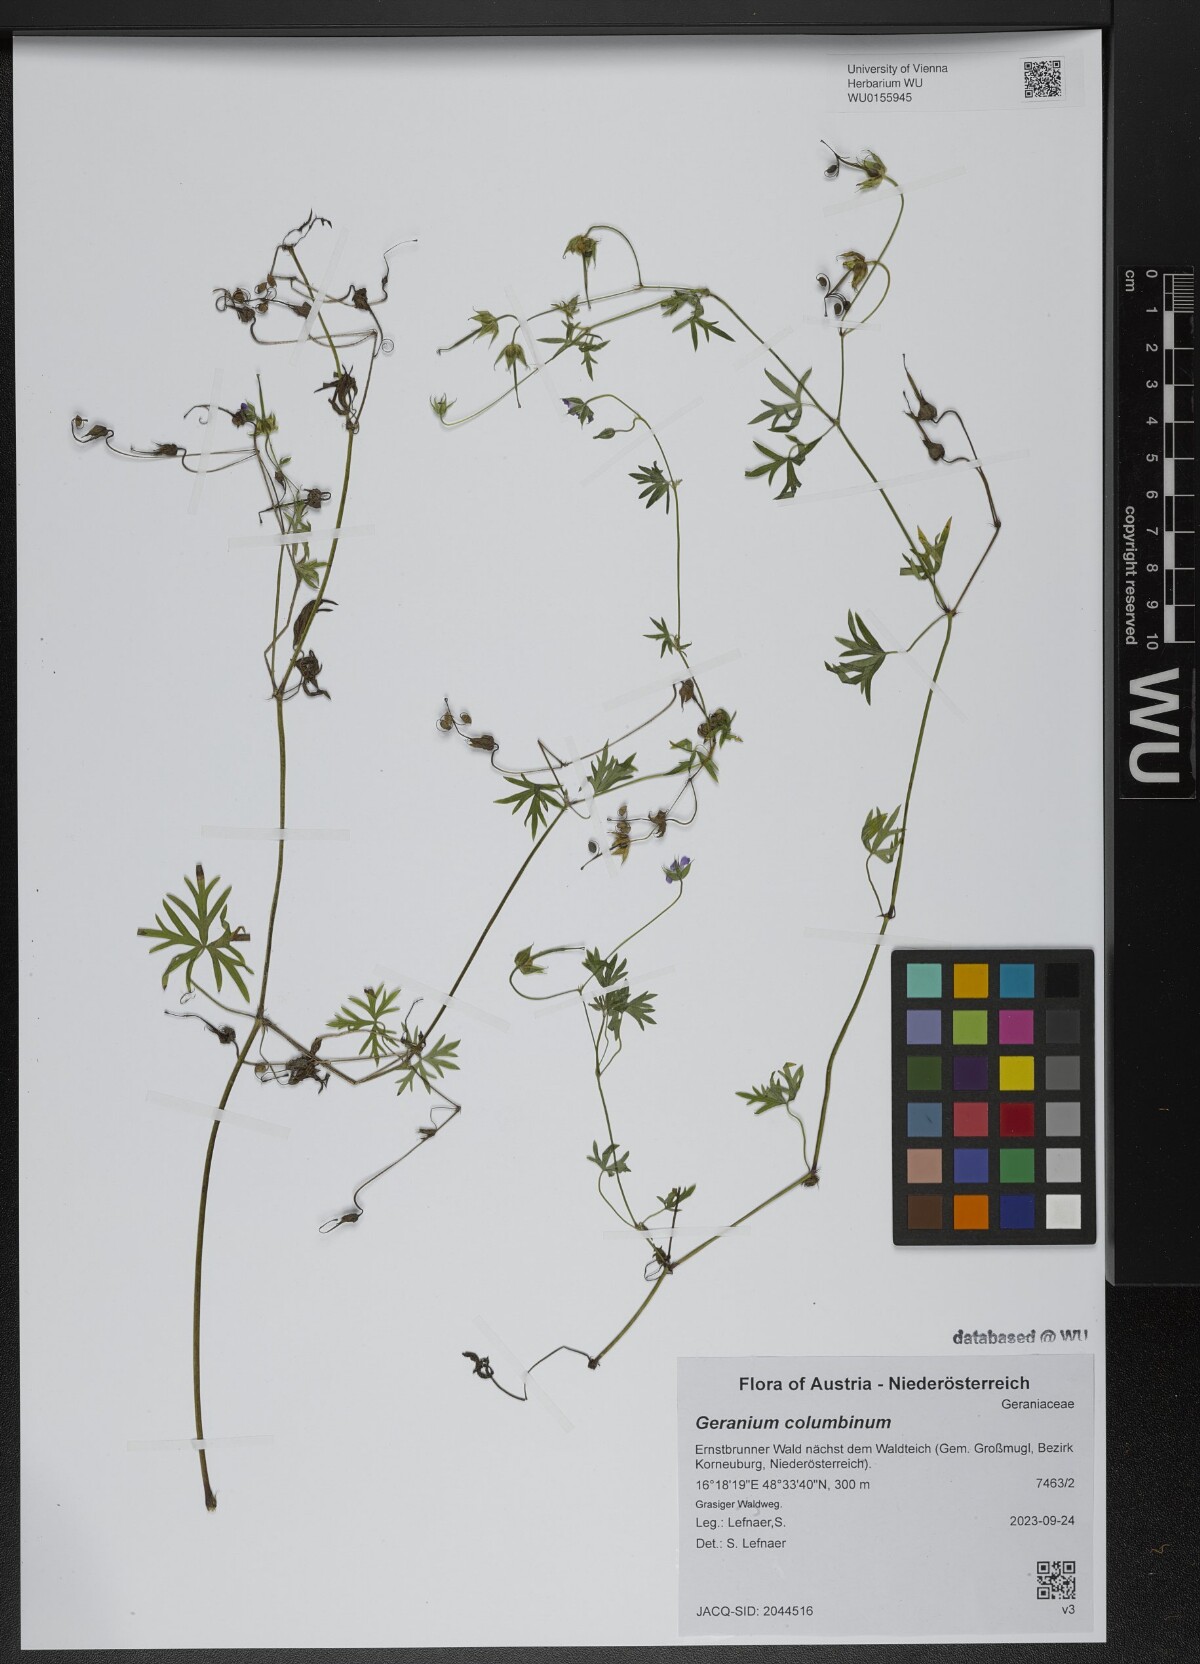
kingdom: Plantae
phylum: Tracheophyta
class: Magnoliopsida
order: Geraniales
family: Geraniaceae
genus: Geranium
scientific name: Geranium columbinum
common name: Long-stalked crane's-bill
